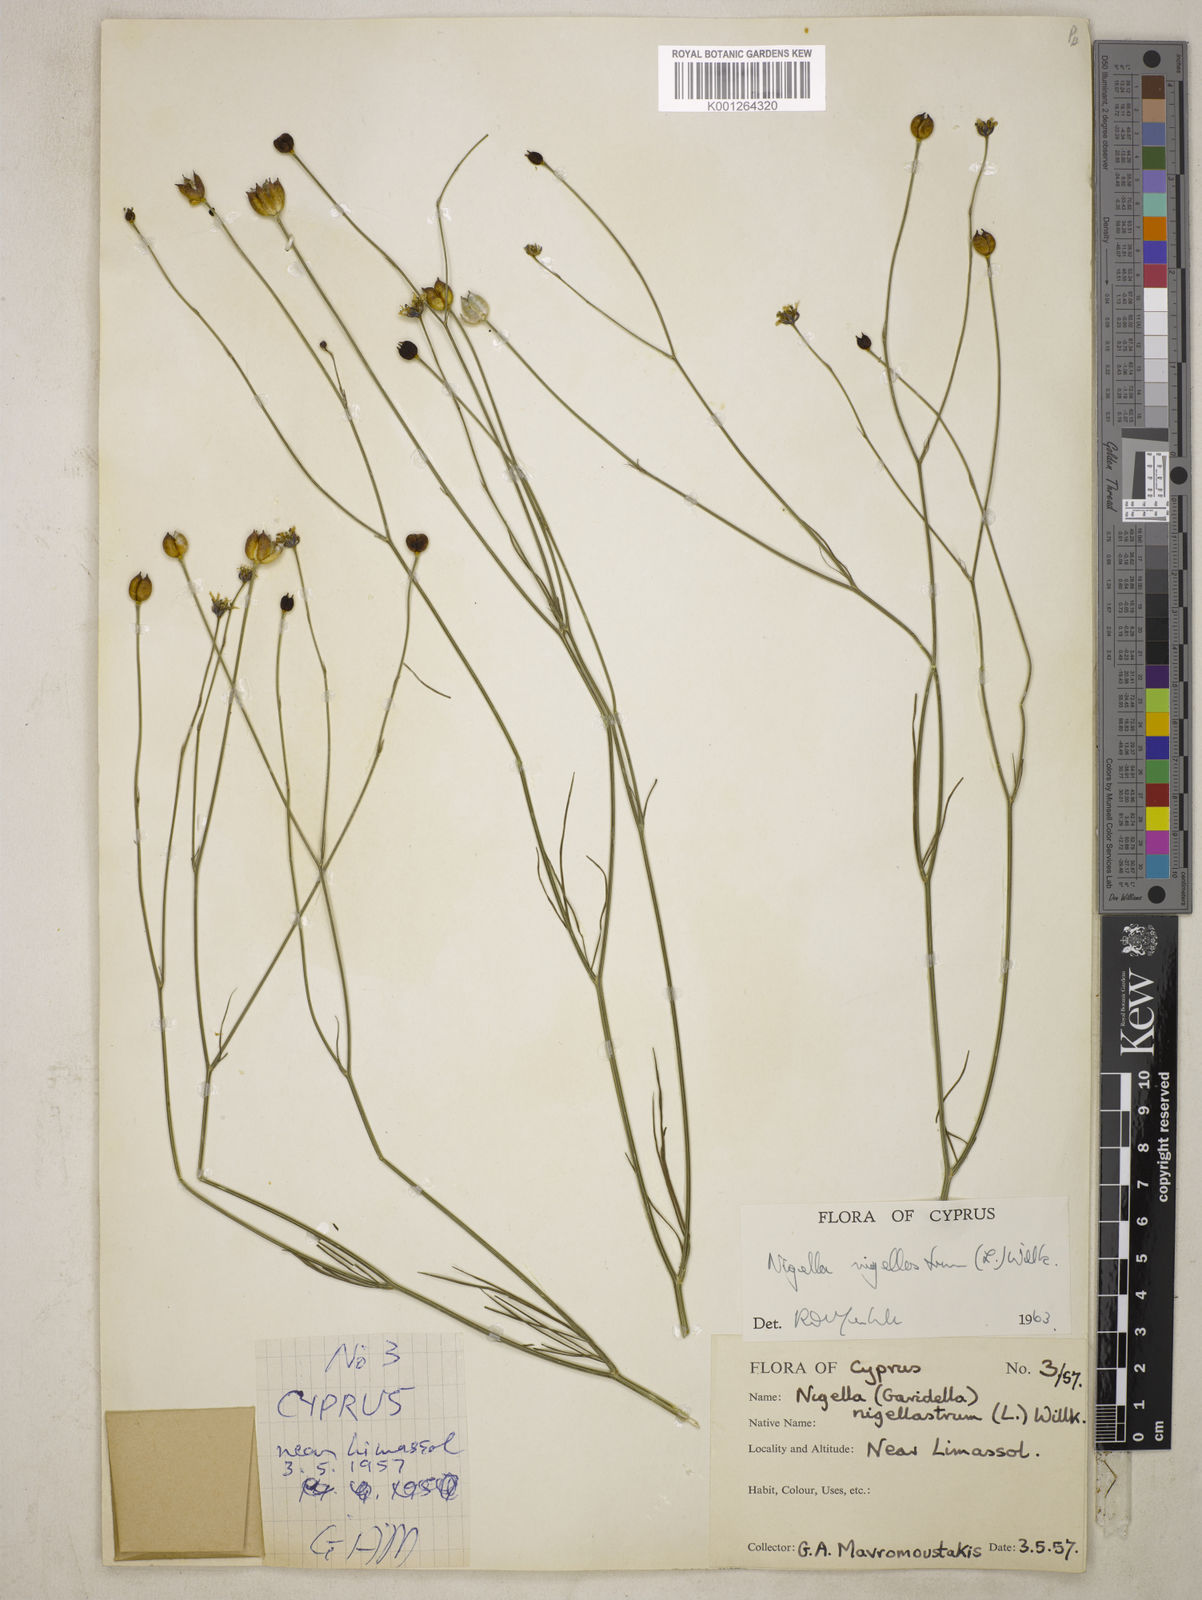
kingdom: Plantae
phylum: Tracheophyta
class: Magnoliopsida
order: Ranunculales
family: Ranunculaceae
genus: Garidella
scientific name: Garidella nigellastrum
